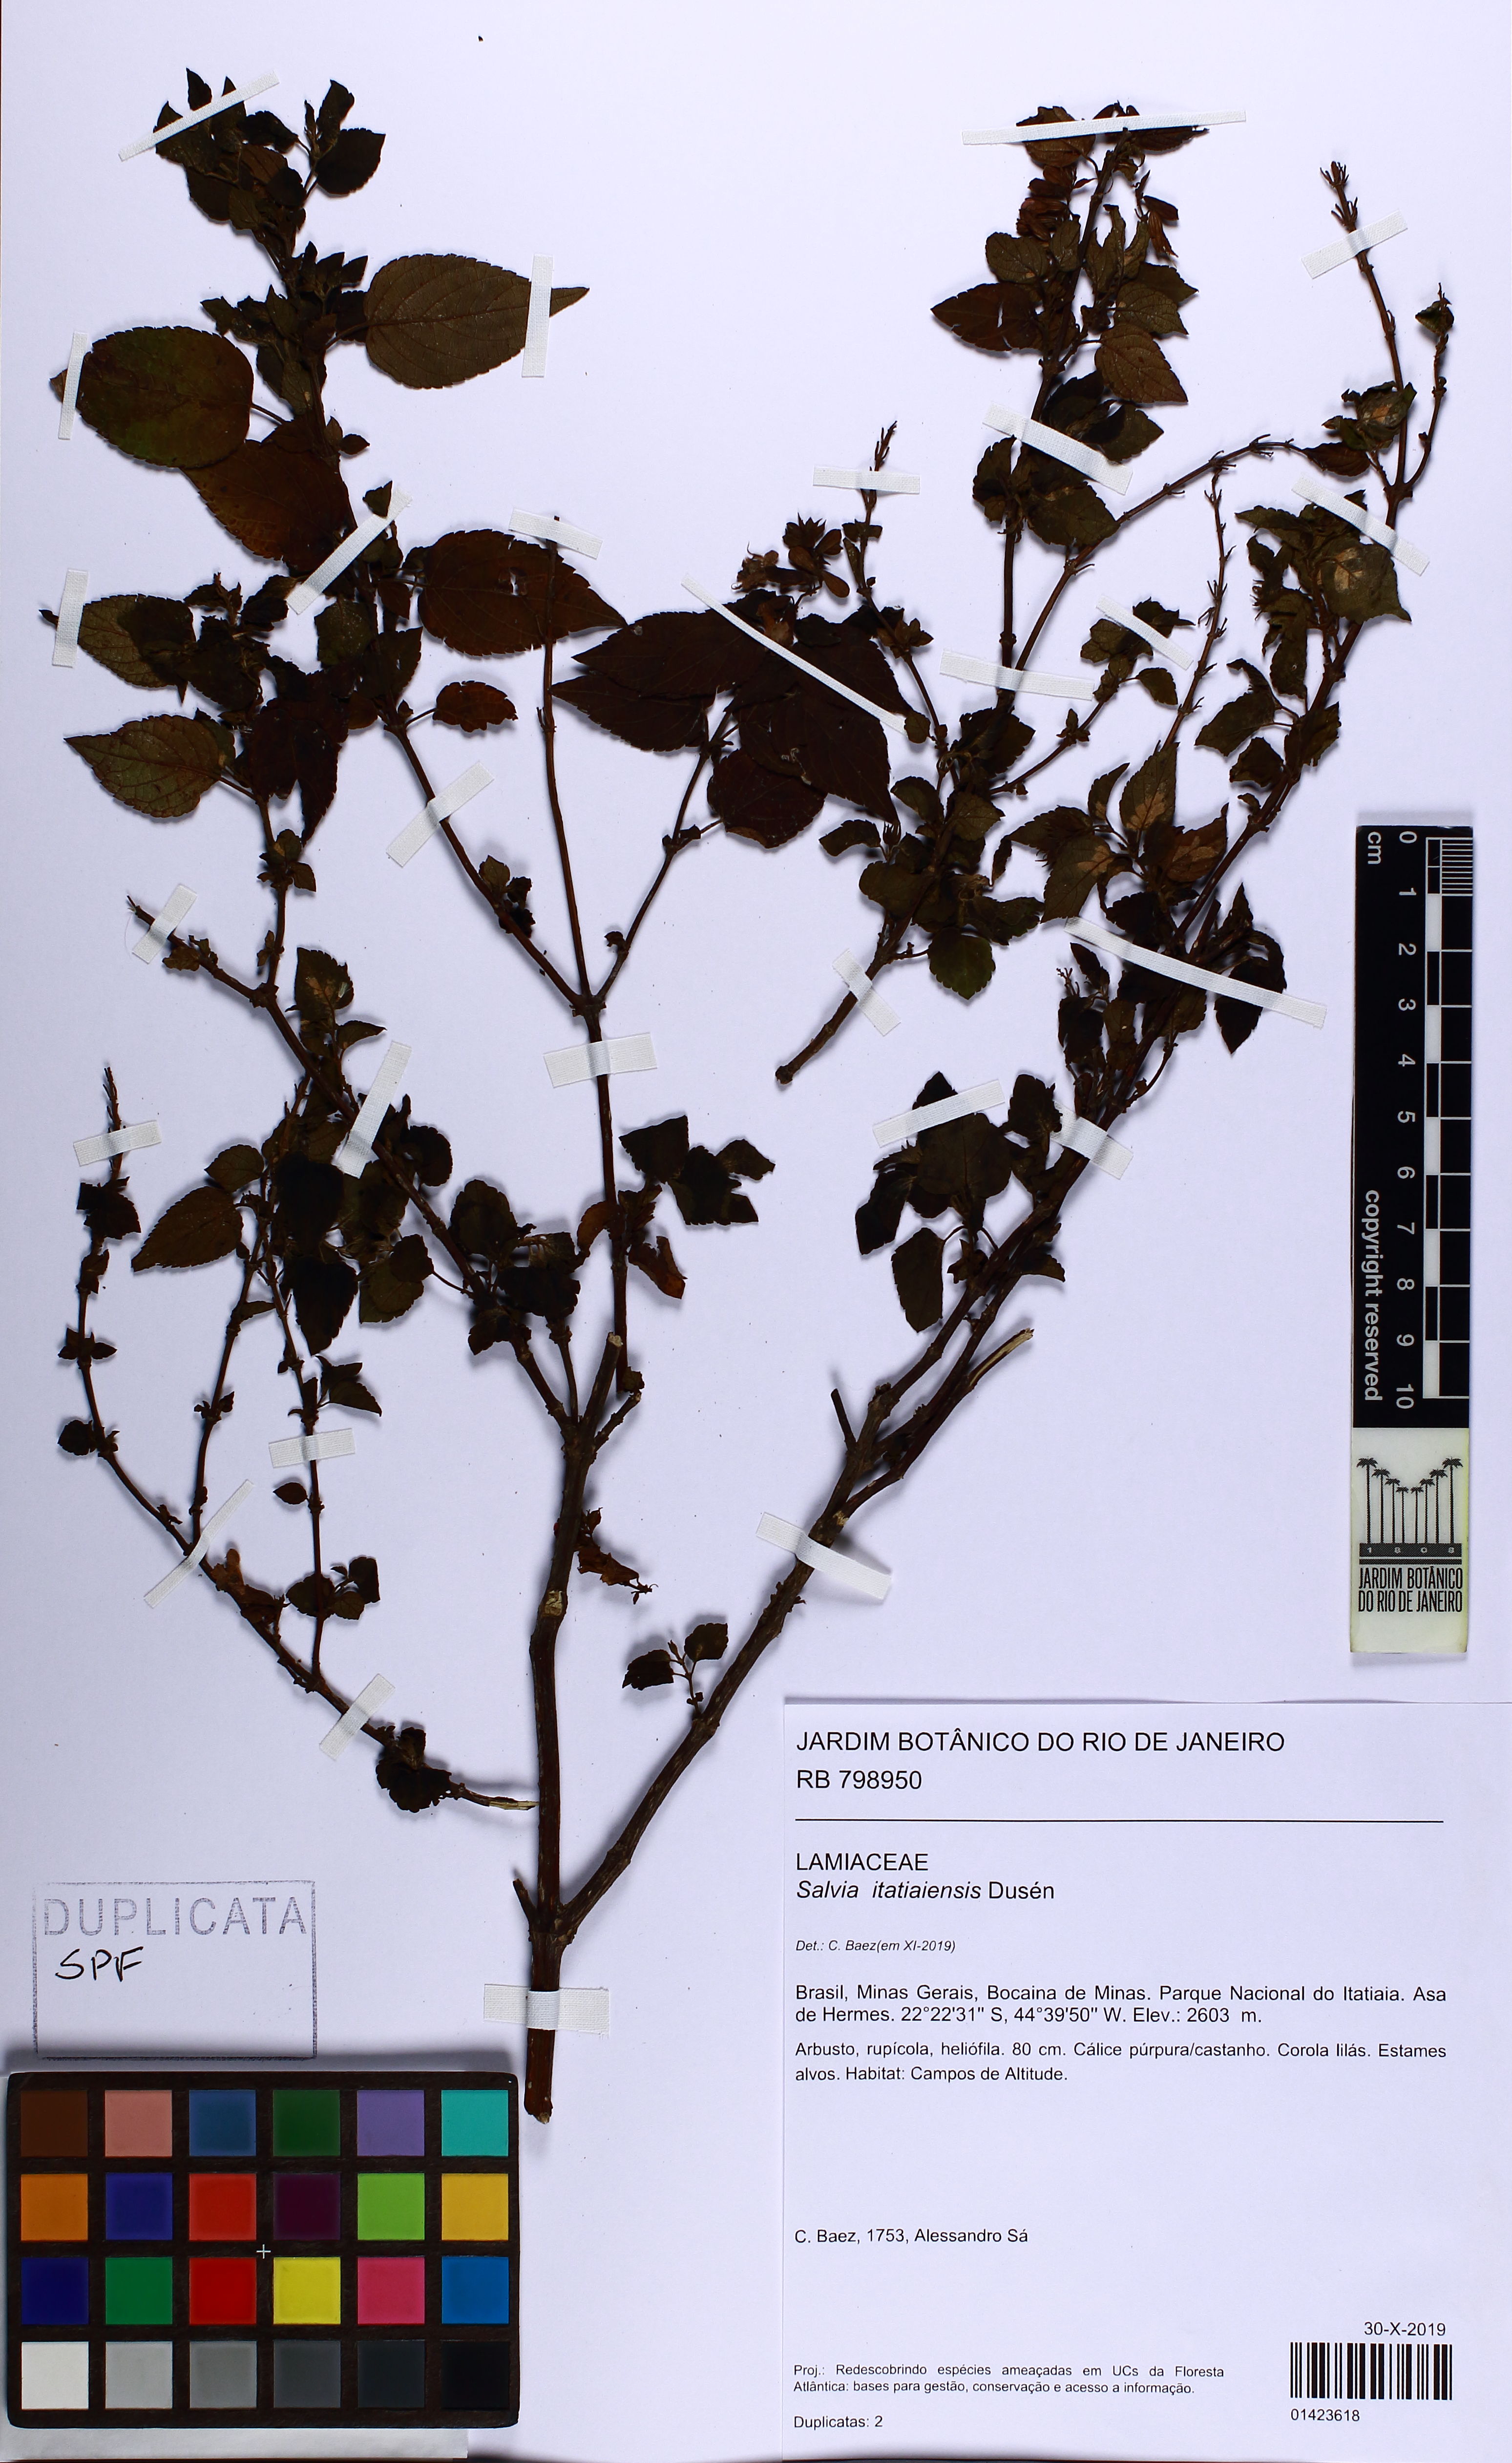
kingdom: Plantae
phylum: Tracheophyta
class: Magnoliopsida
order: Lamiales
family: Lamiaceae
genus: Salvia
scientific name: Salvia itatiaiensis
